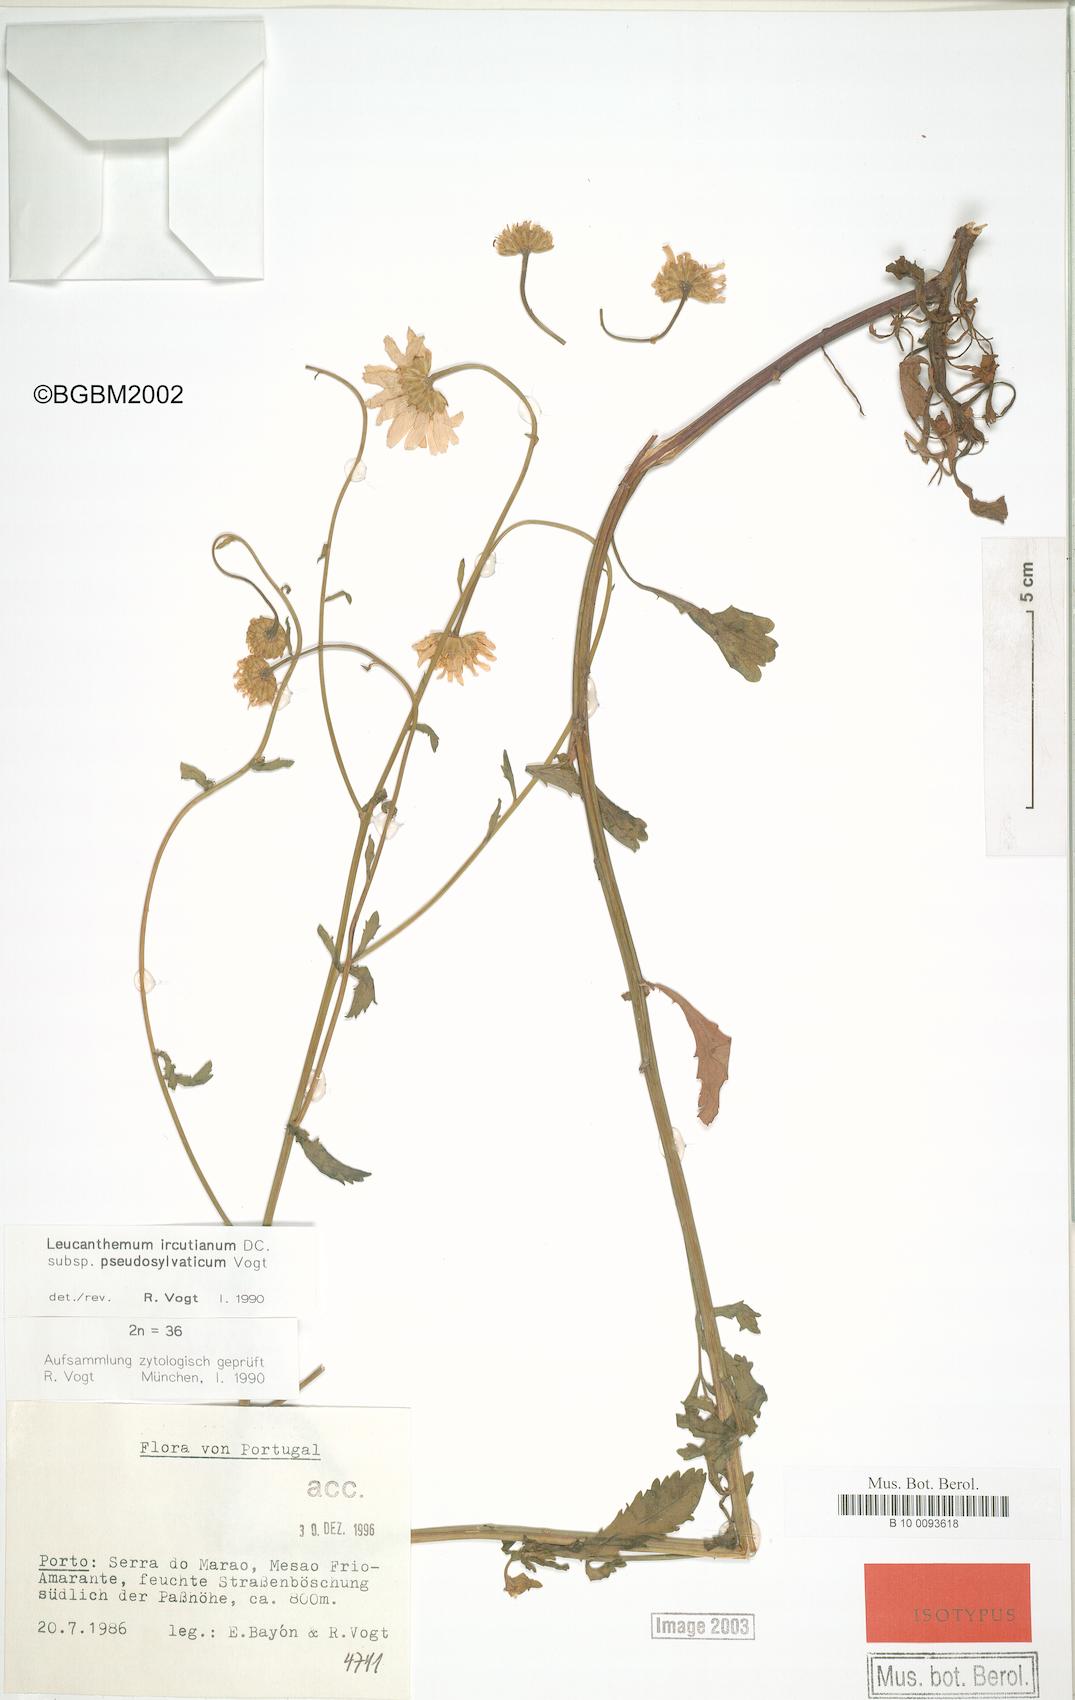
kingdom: Plantae
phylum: Tracheophyta
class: Magnoliopsida
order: Asterales
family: Asteraceae
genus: Leucanthemum
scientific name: Leucanthemum pseudosylvaticum
